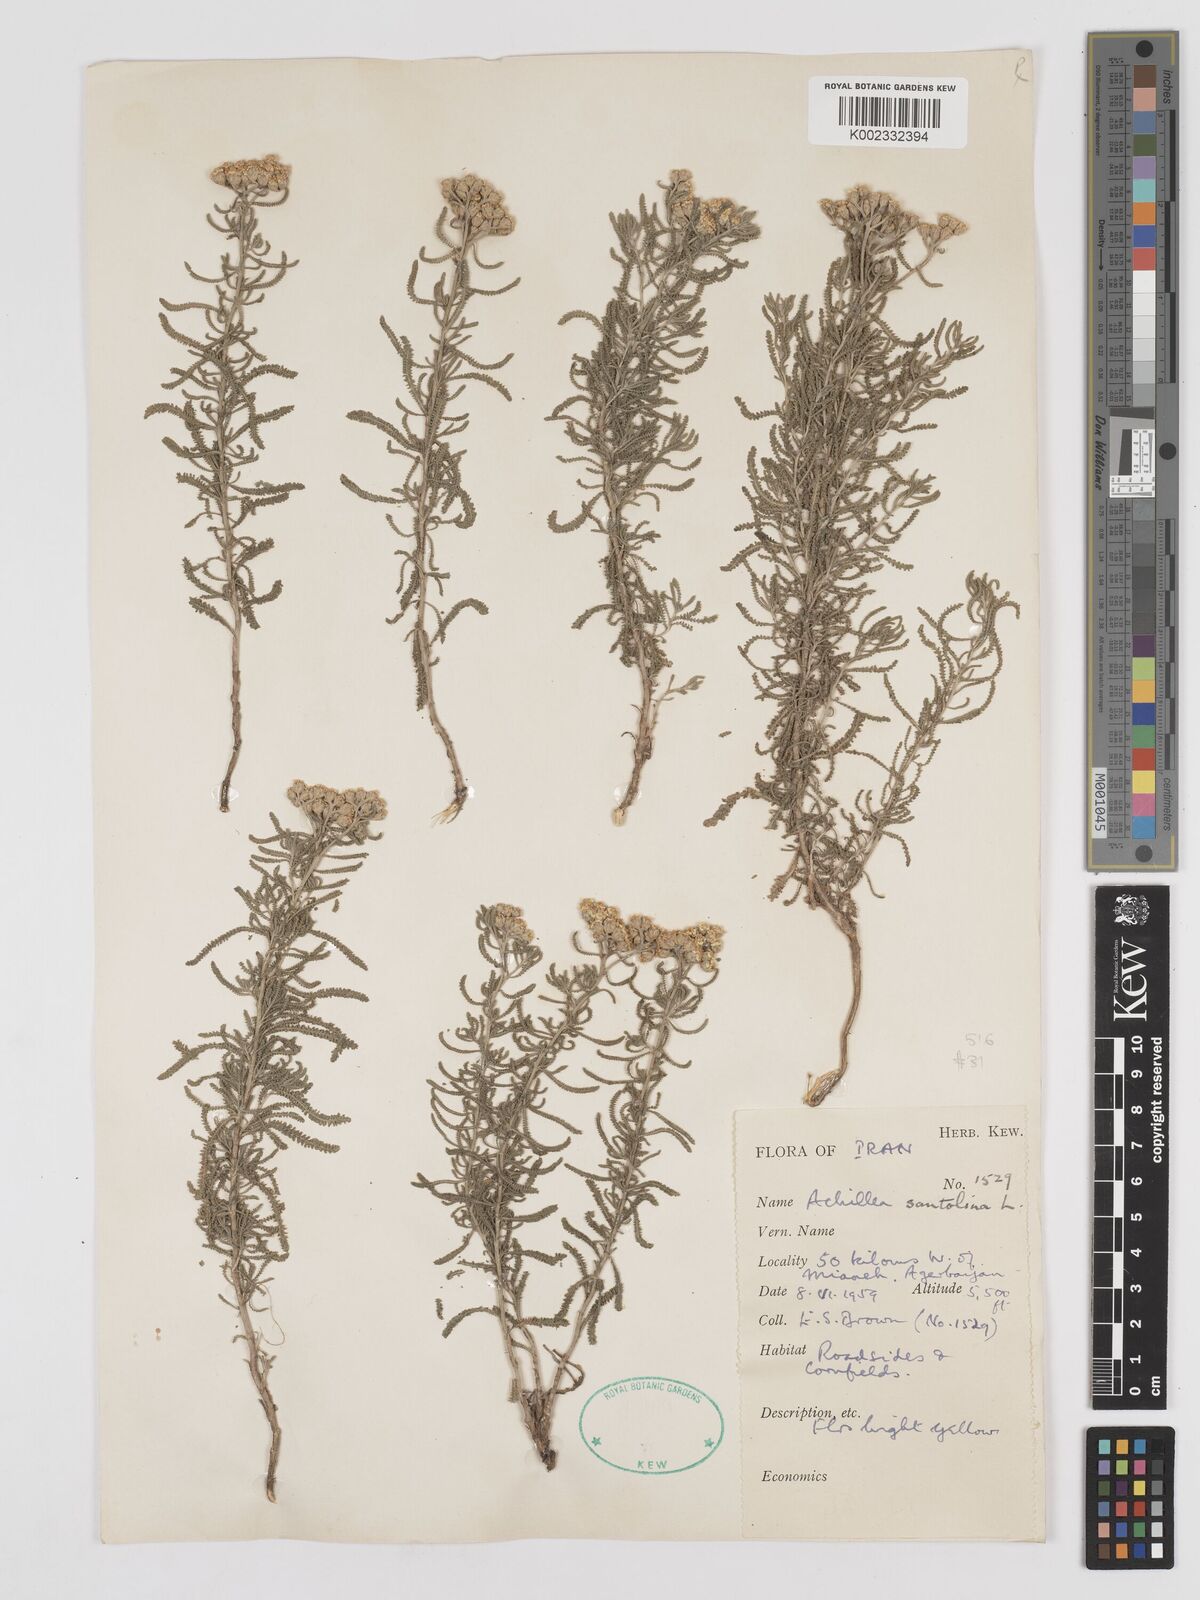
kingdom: Plantae
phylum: Tracheophyta
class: Magnoliopsida
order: Asterales
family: Asteraceae
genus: Achillea
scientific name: Achillea cretica
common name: Chamomile-leaved lavender-cotton
